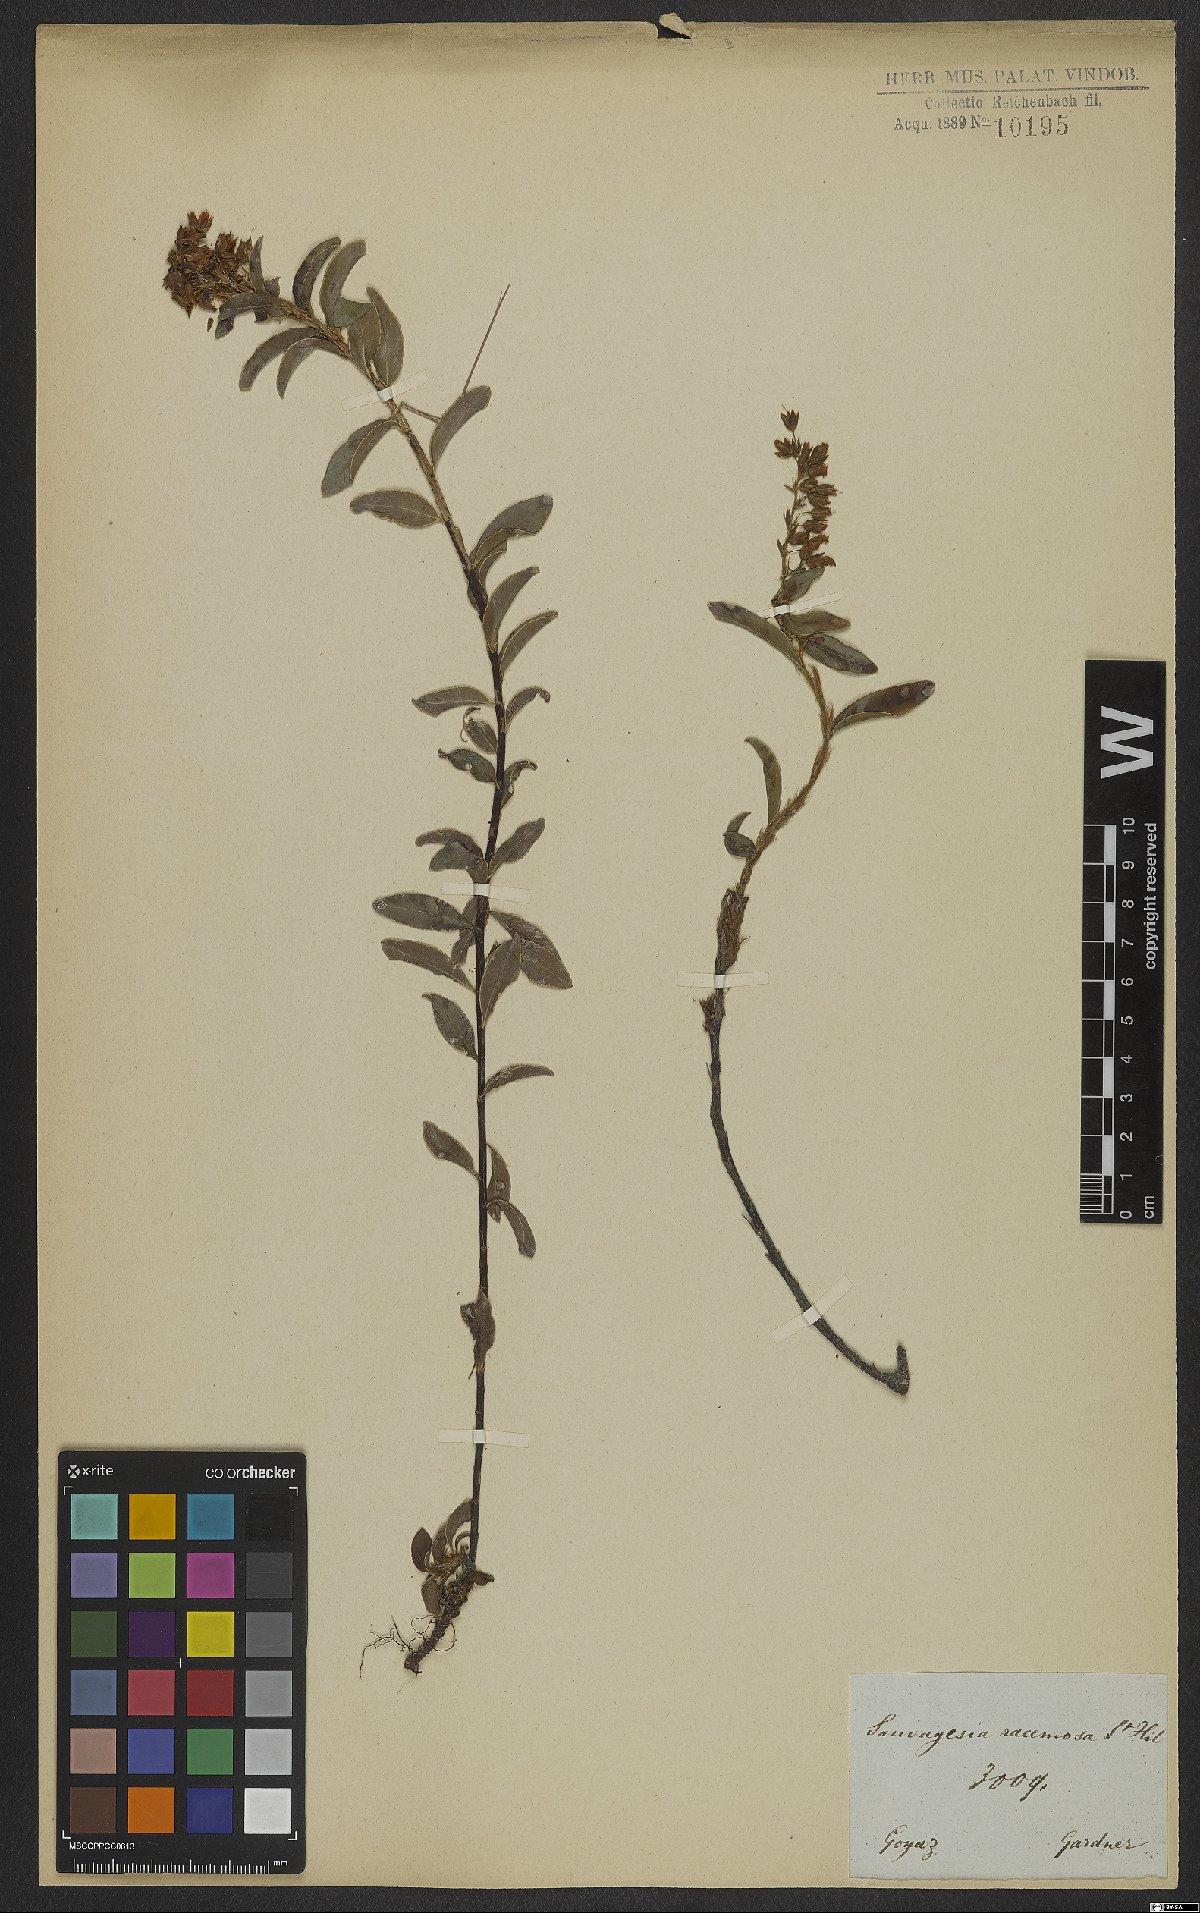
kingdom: Plantae
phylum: Tracheophyta
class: Magnoliopsida
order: Malpighiales
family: Ochnaceae
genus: Sauvagesia
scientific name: Sauvagesia racemosa
